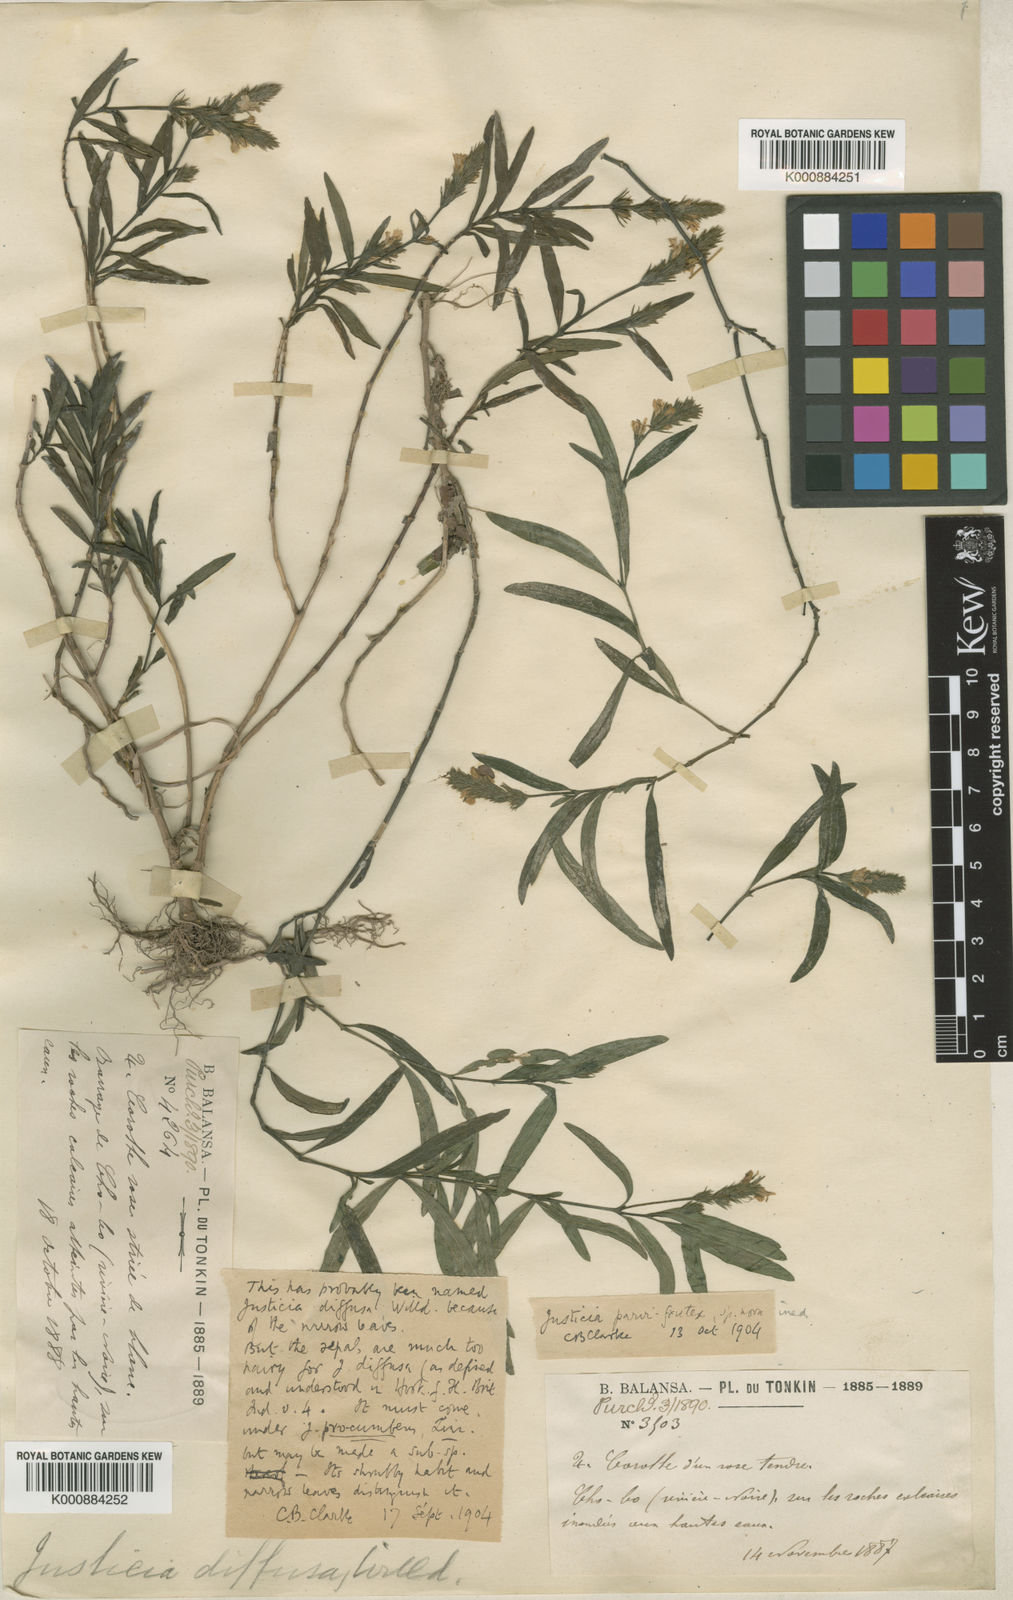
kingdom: Plantae
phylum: Tracheophyta
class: Magnoliopsida
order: Lamiales
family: Acanthaceae
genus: Justicia
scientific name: Justicia
